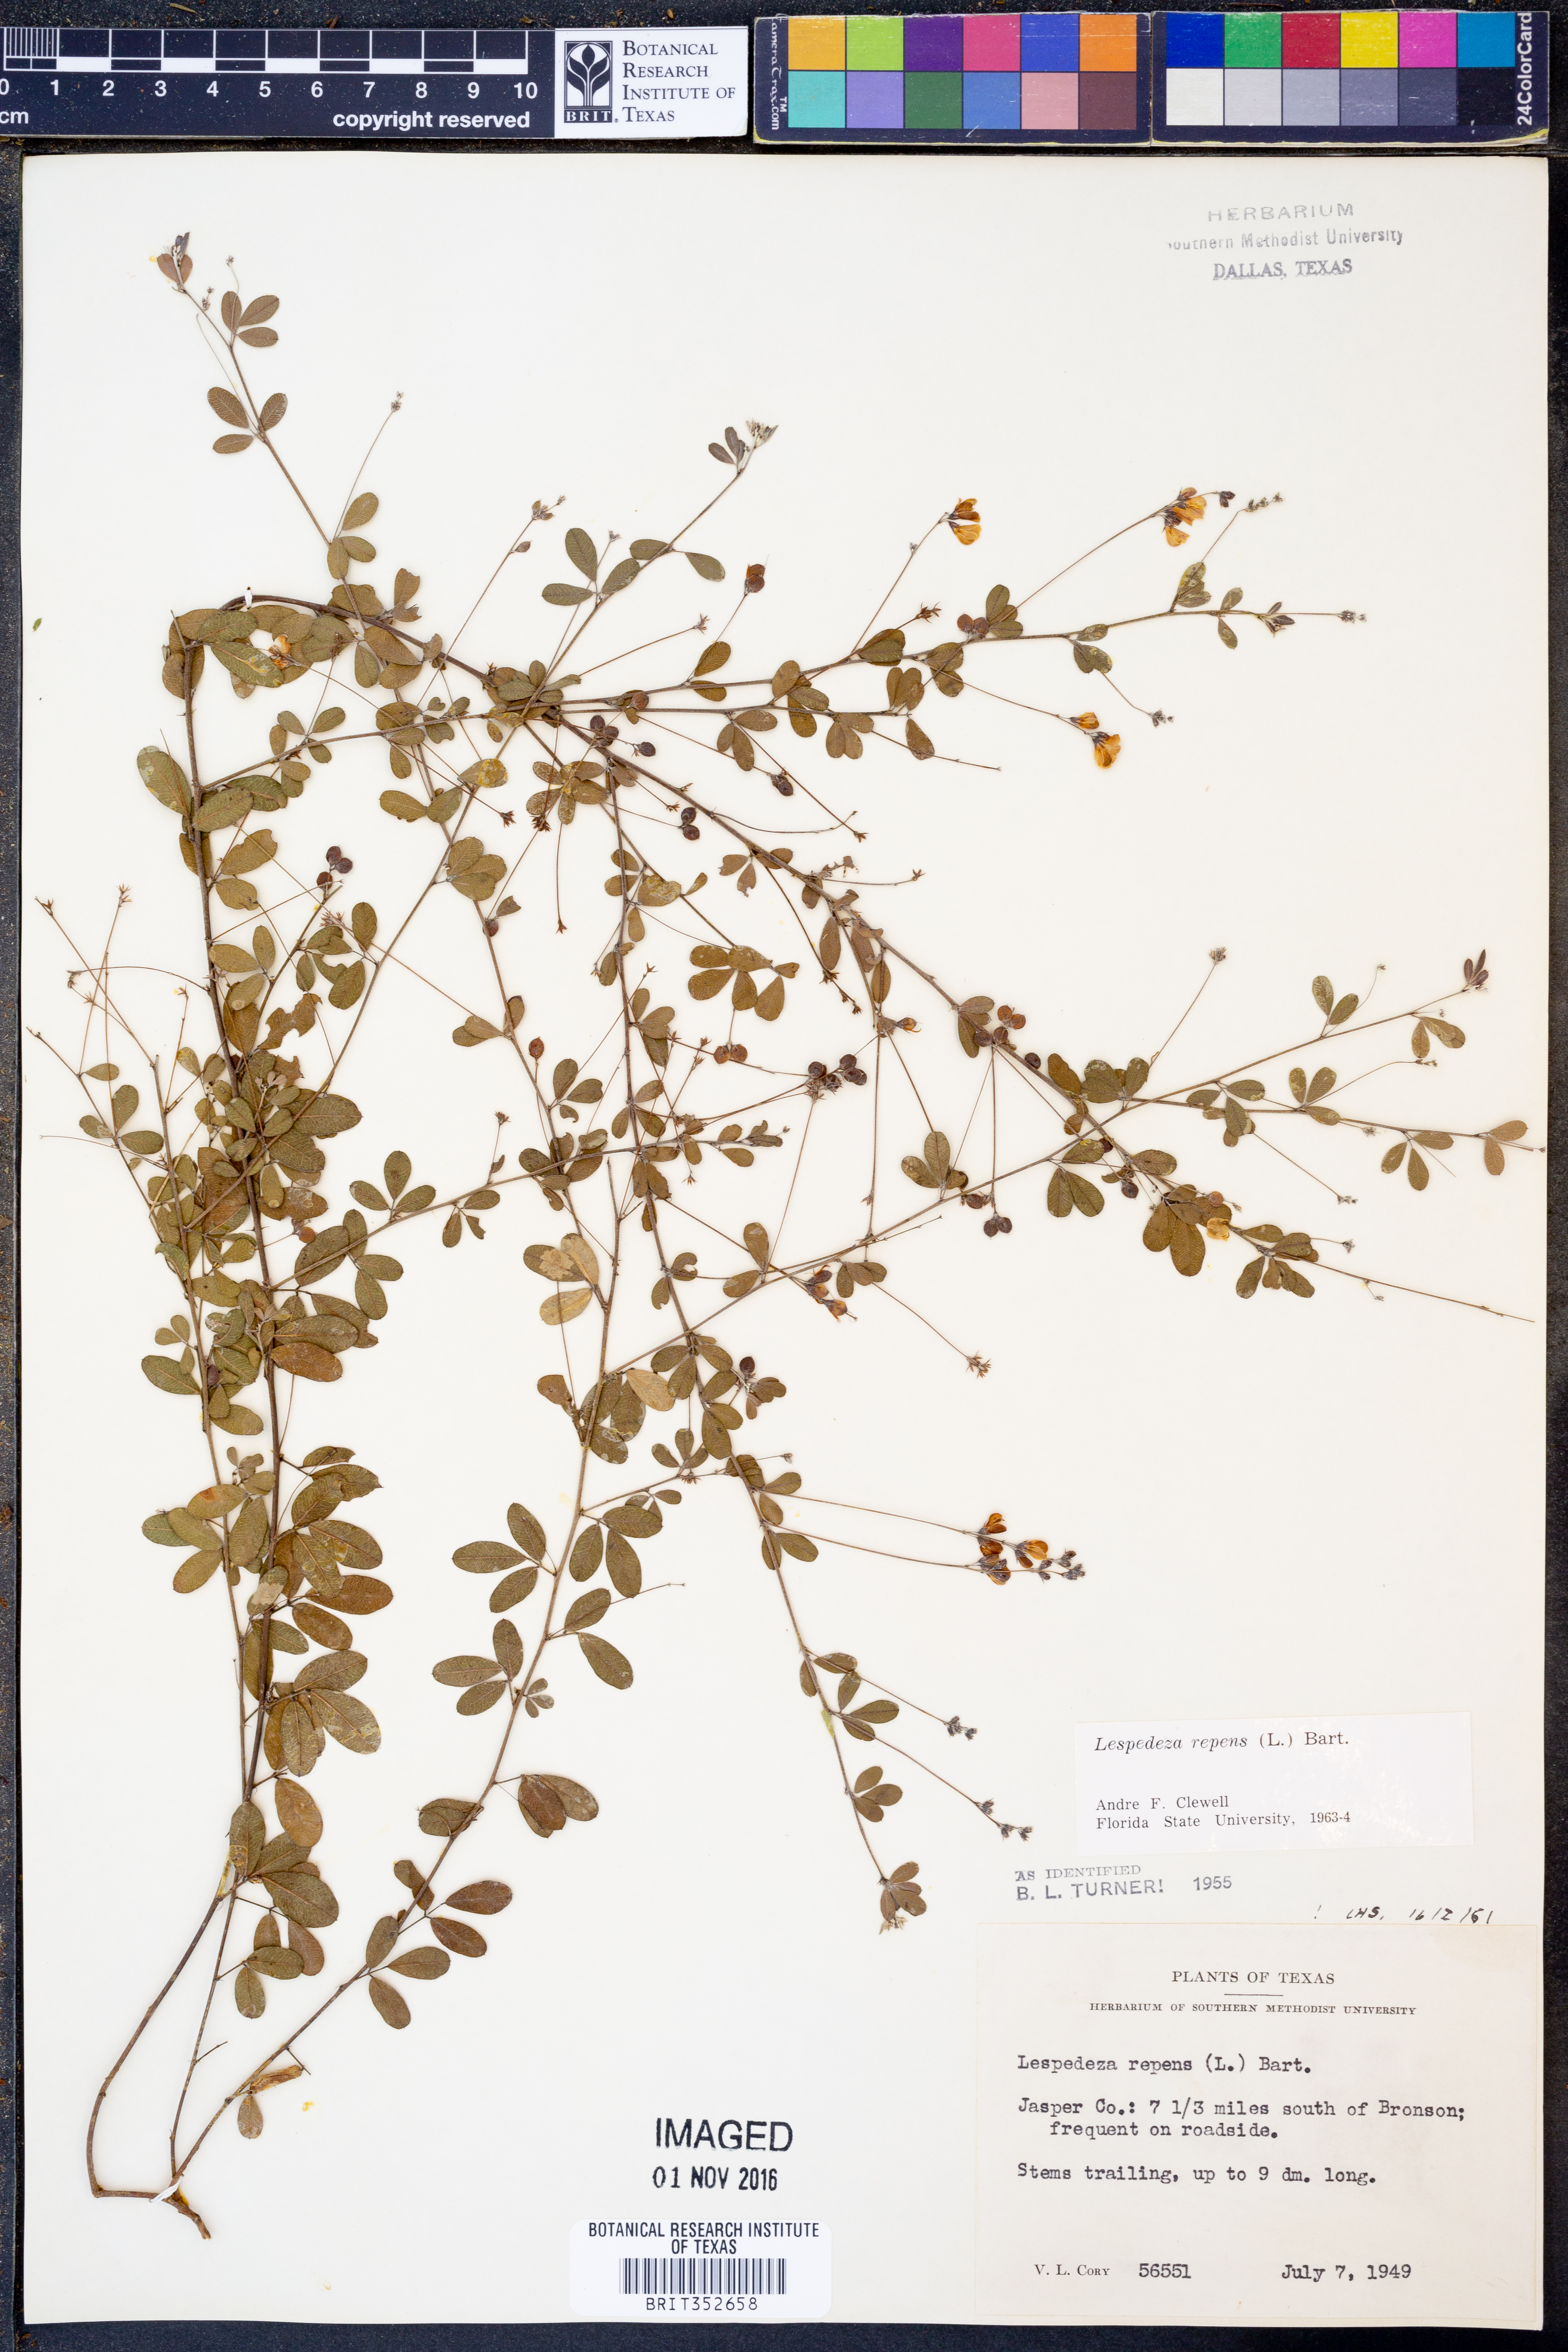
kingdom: Plantae
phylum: Tracheophyta
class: Magnoliopsida
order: Fabales
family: Fabaceae
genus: Lespedeza
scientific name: Lespedeza repens
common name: Creeping bush-clover
